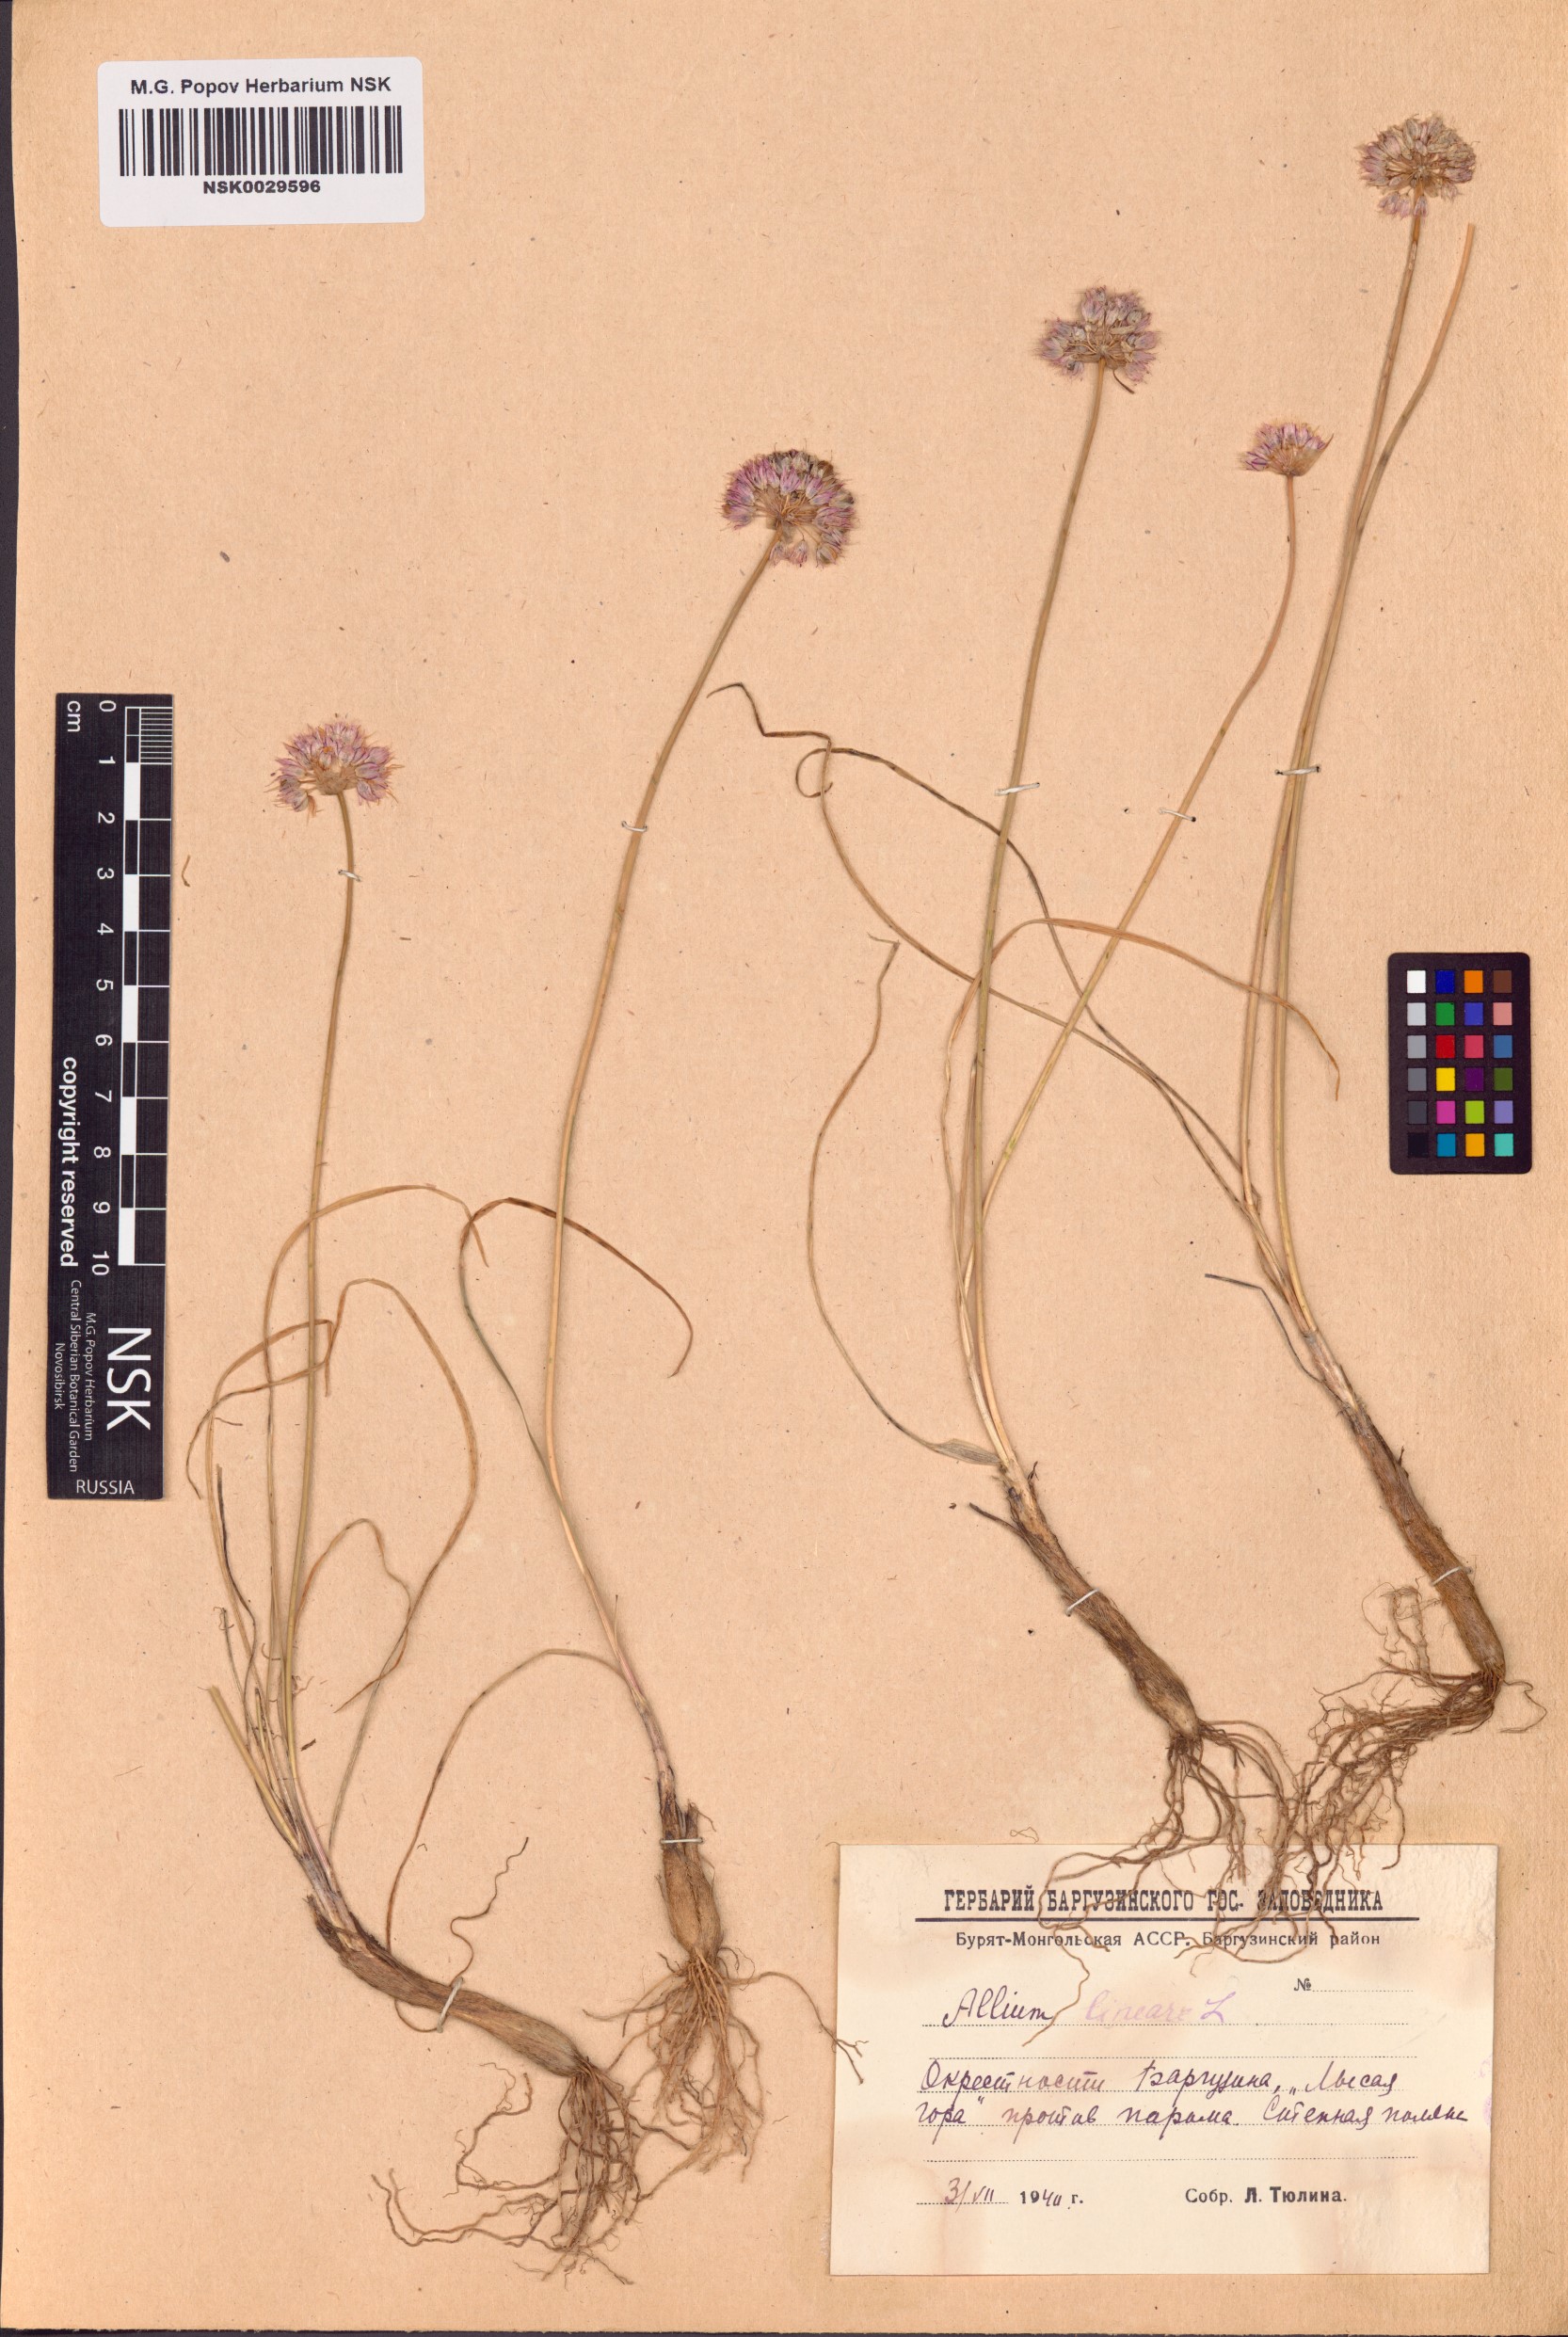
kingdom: Plantae
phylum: Tracheophyta
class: Liliopsida
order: Asparagales
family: Amaryllidaceae
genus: Allium
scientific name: Allium lineare
